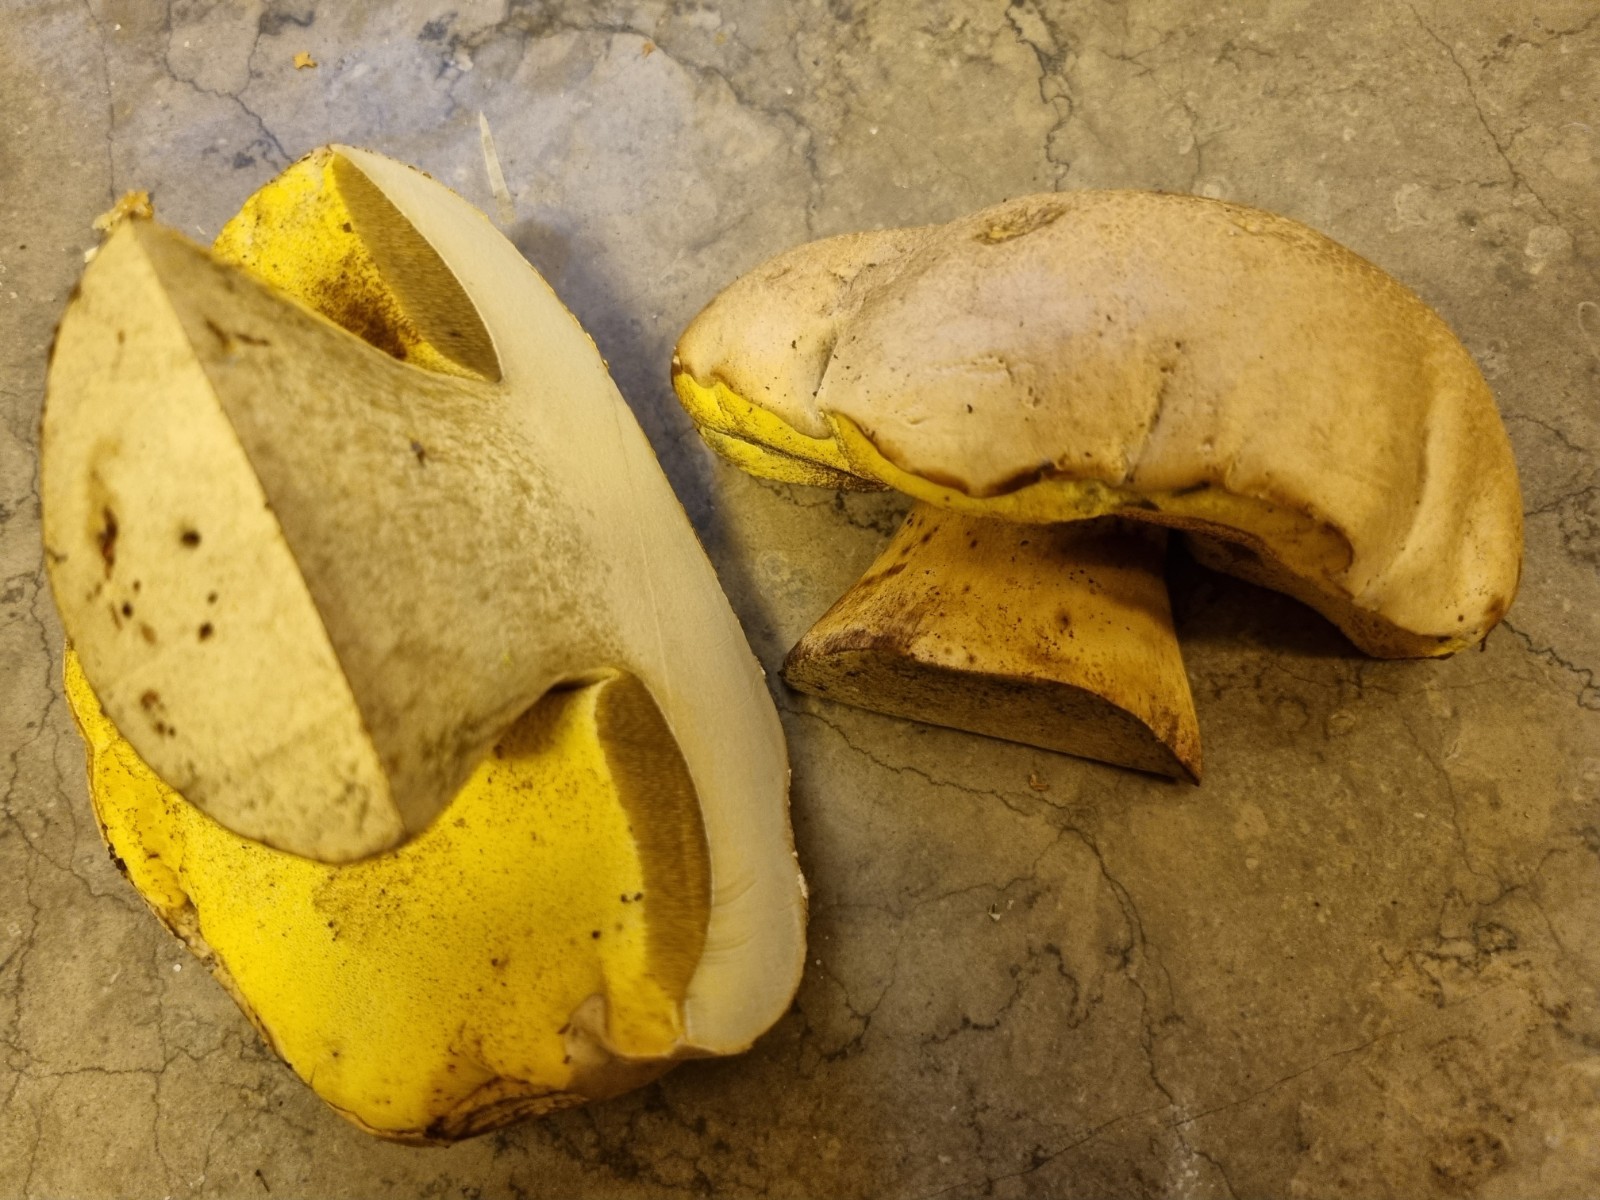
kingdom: Fungi
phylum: Basidiomycota
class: Agaricomycetes
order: Boletales
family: Boletaceae
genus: Caloboletus
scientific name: Caloboletus radicans
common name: rod-rørhat
